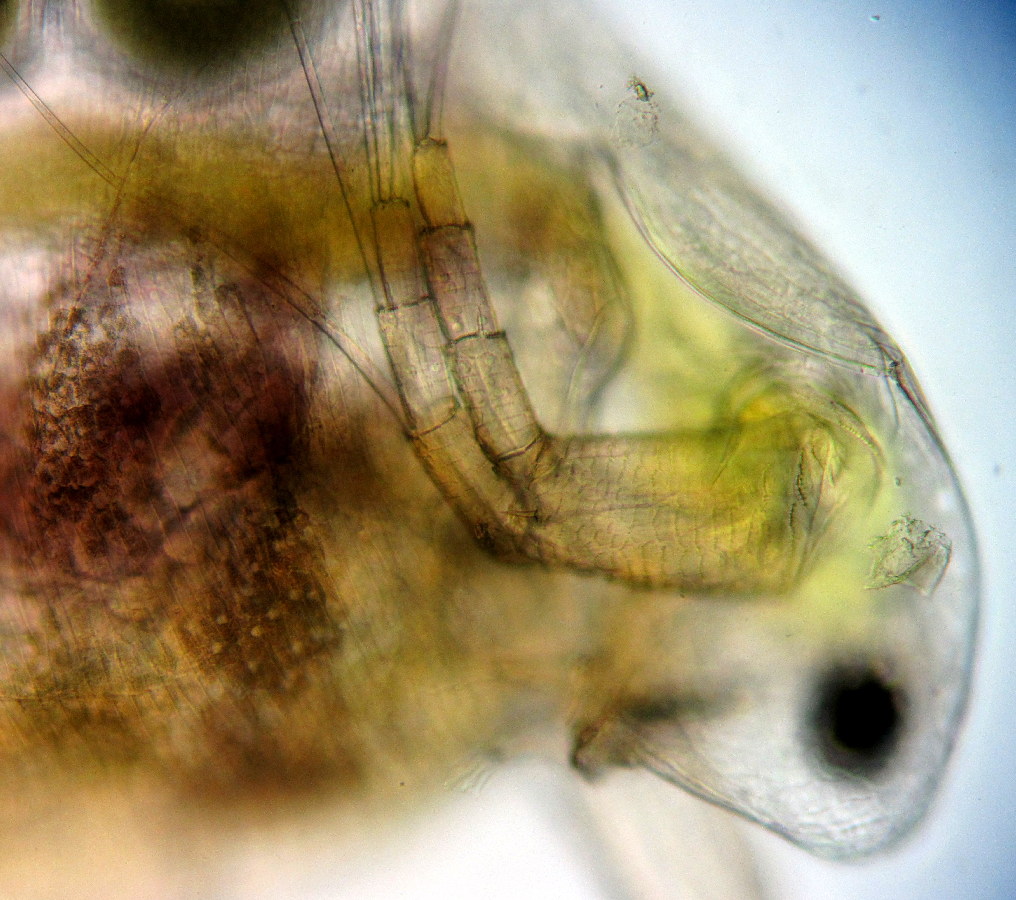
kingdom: Animalia
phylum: Arthropoda
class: Branchiopoda
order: Diplostraca
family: Daphniidae
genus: Simocephalus
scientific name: Simocephalus vetulus
